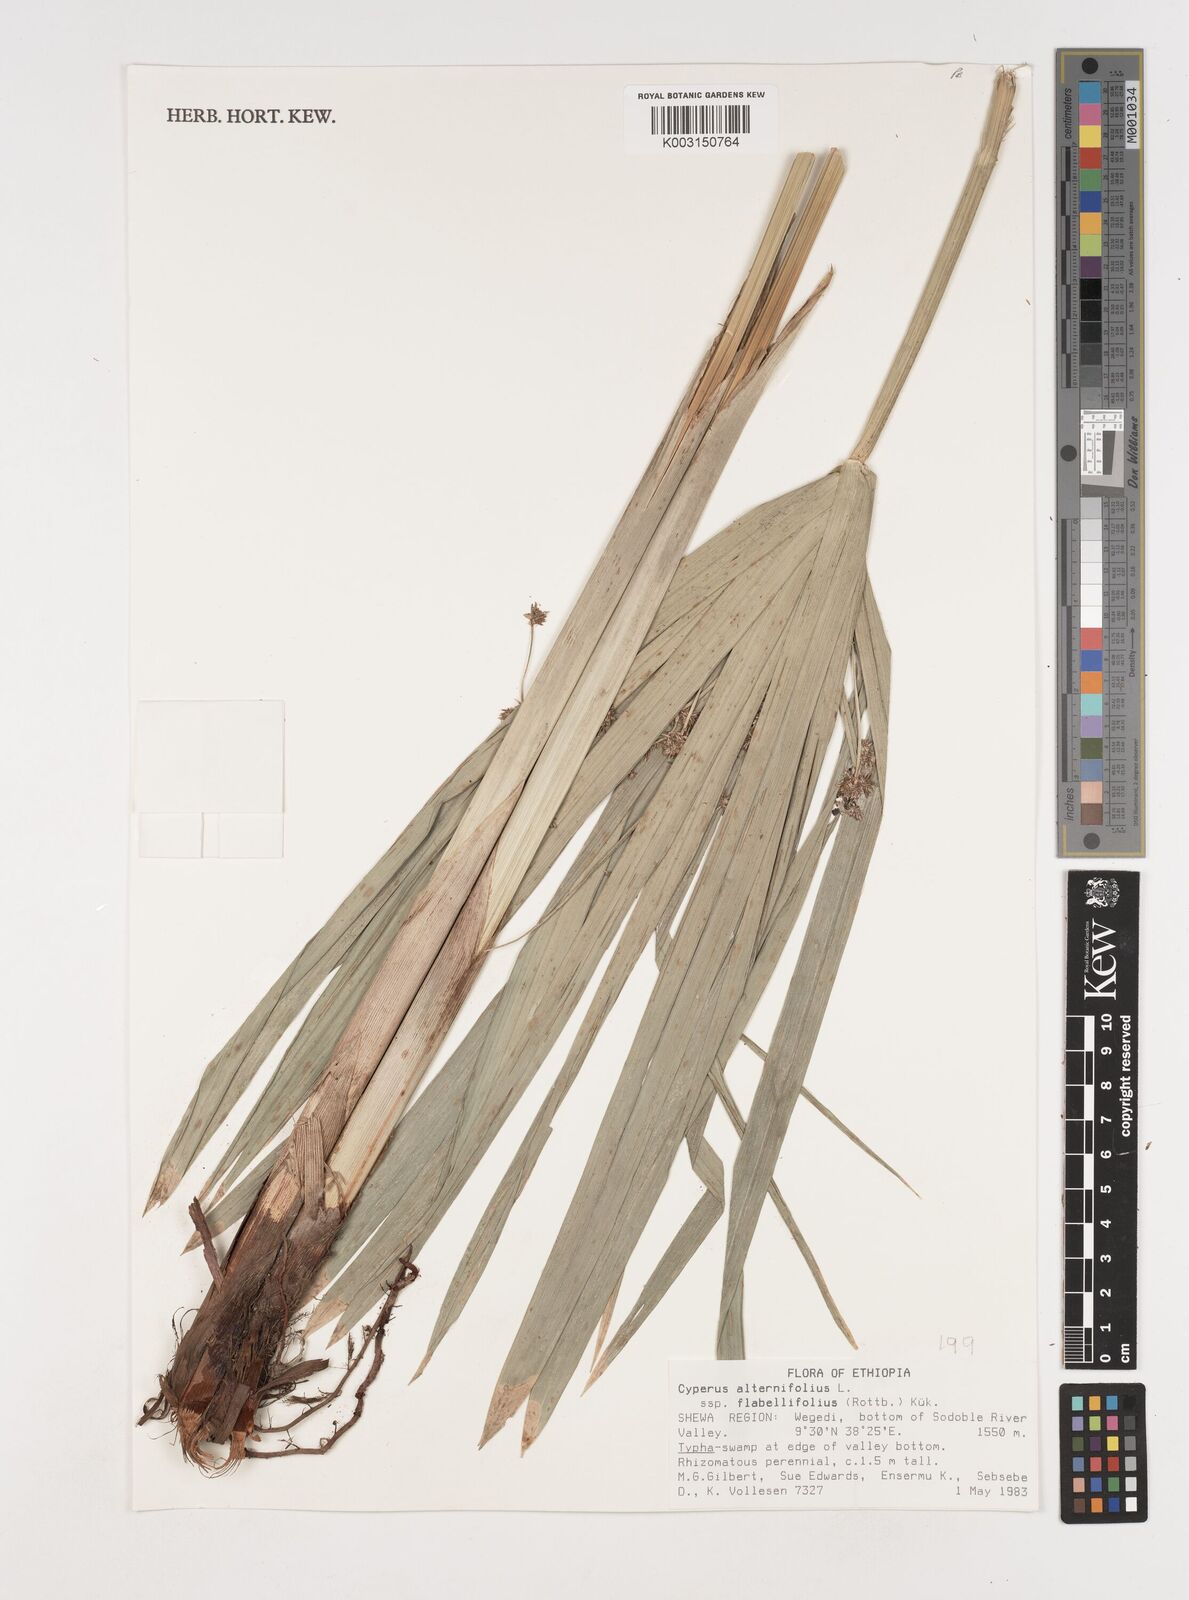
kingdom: Plantae
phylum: Tracheophyta
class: Liliopsida
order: Poales
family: Cyperaceae
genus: Cyperus
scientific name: Cyperus alternifolius
